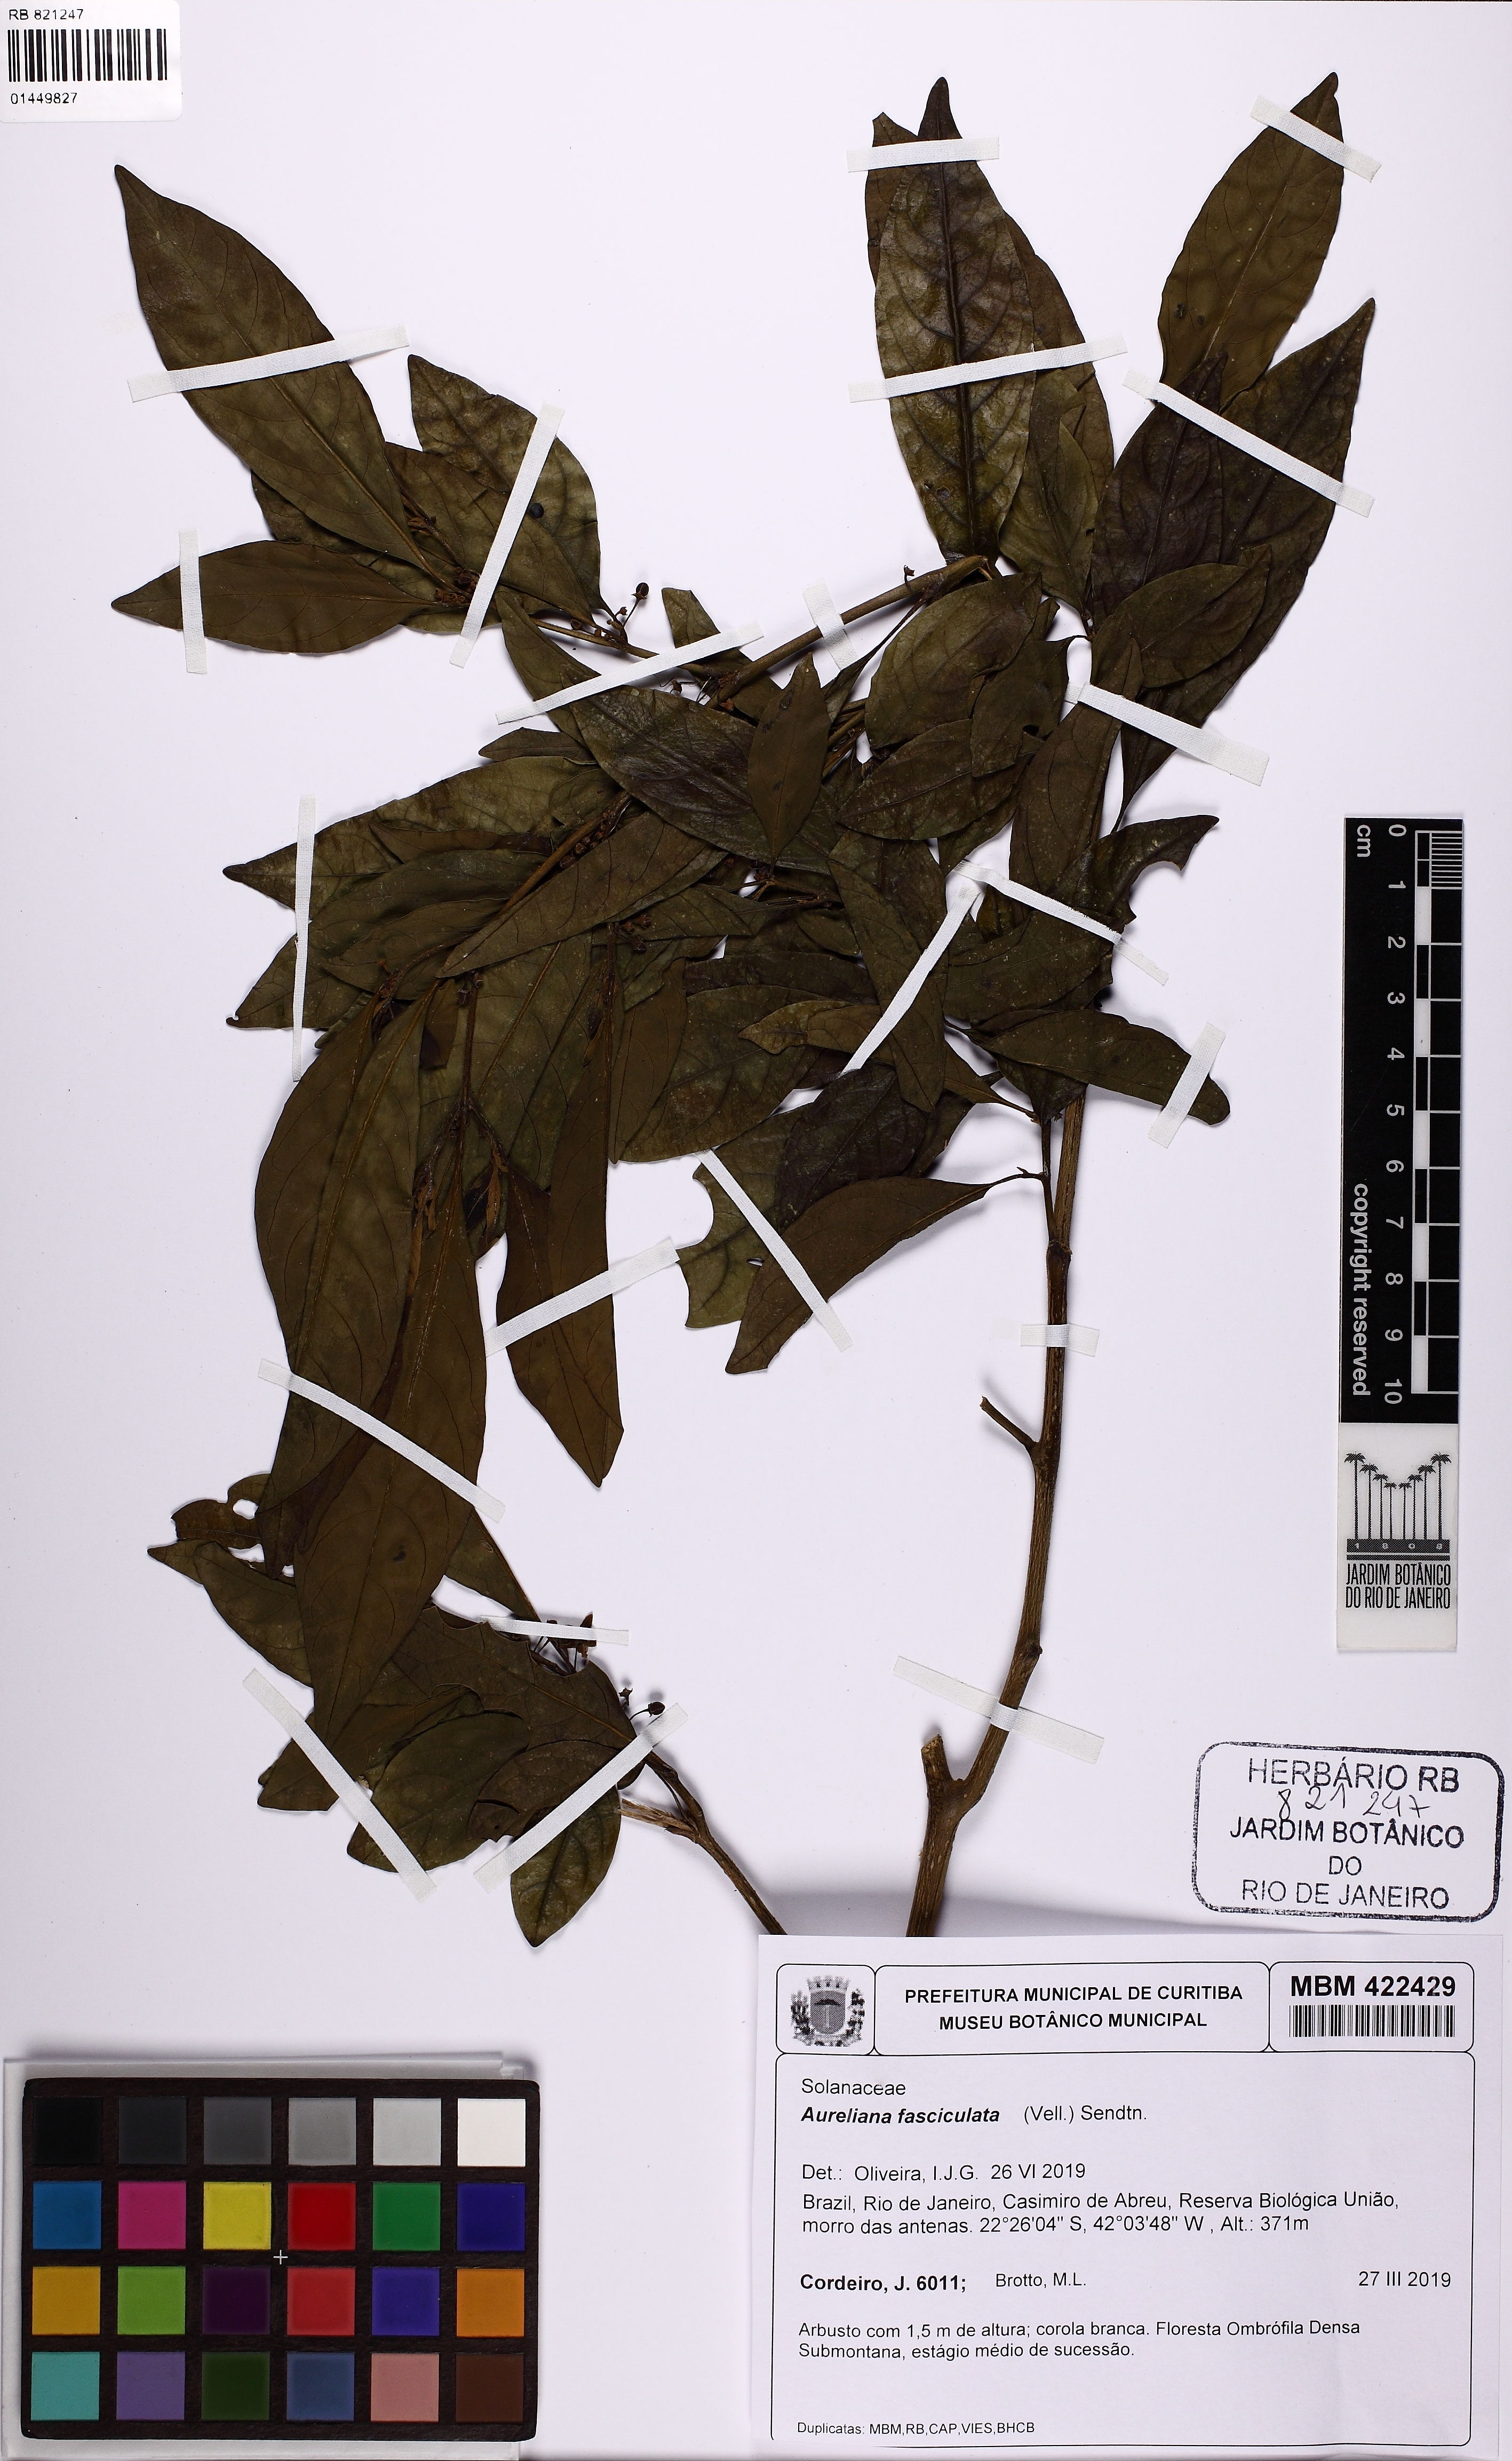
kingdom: Plantae
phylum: Tracheophyta
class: Magnoliopsida
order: Solanales
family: Solanaceae
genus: Athenaea
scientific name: Athenaea fasciculata
